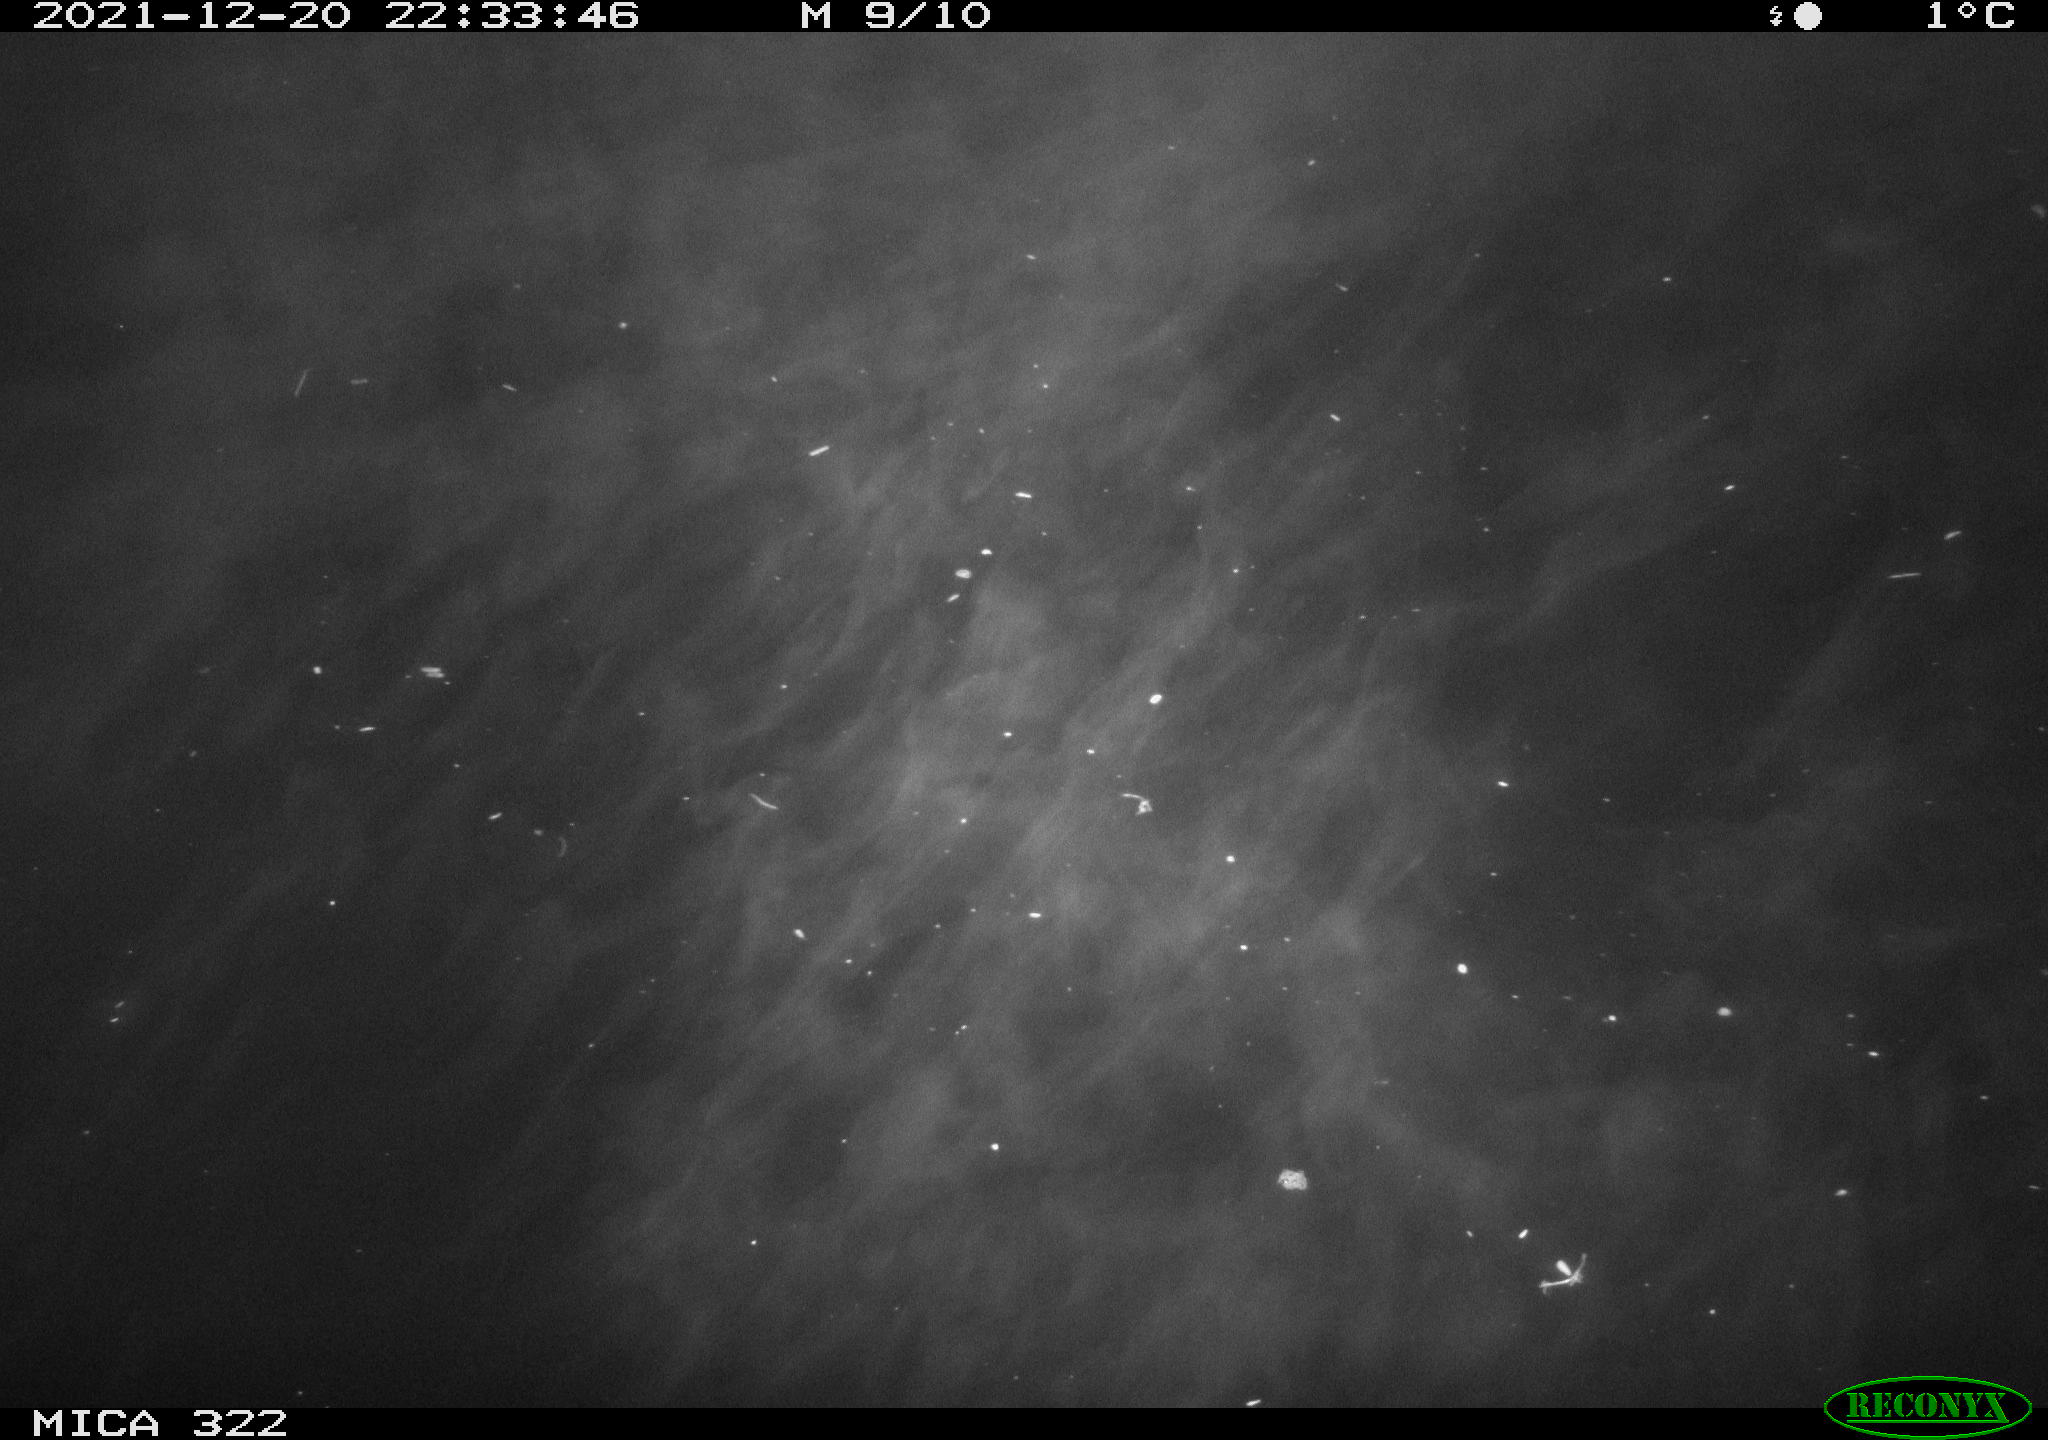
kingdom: Animalia
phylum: Chordata
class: Mammalia
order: Rodentia
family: Muridae
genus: Rattus
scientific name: Rattus norvegicus
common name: Brown rat
